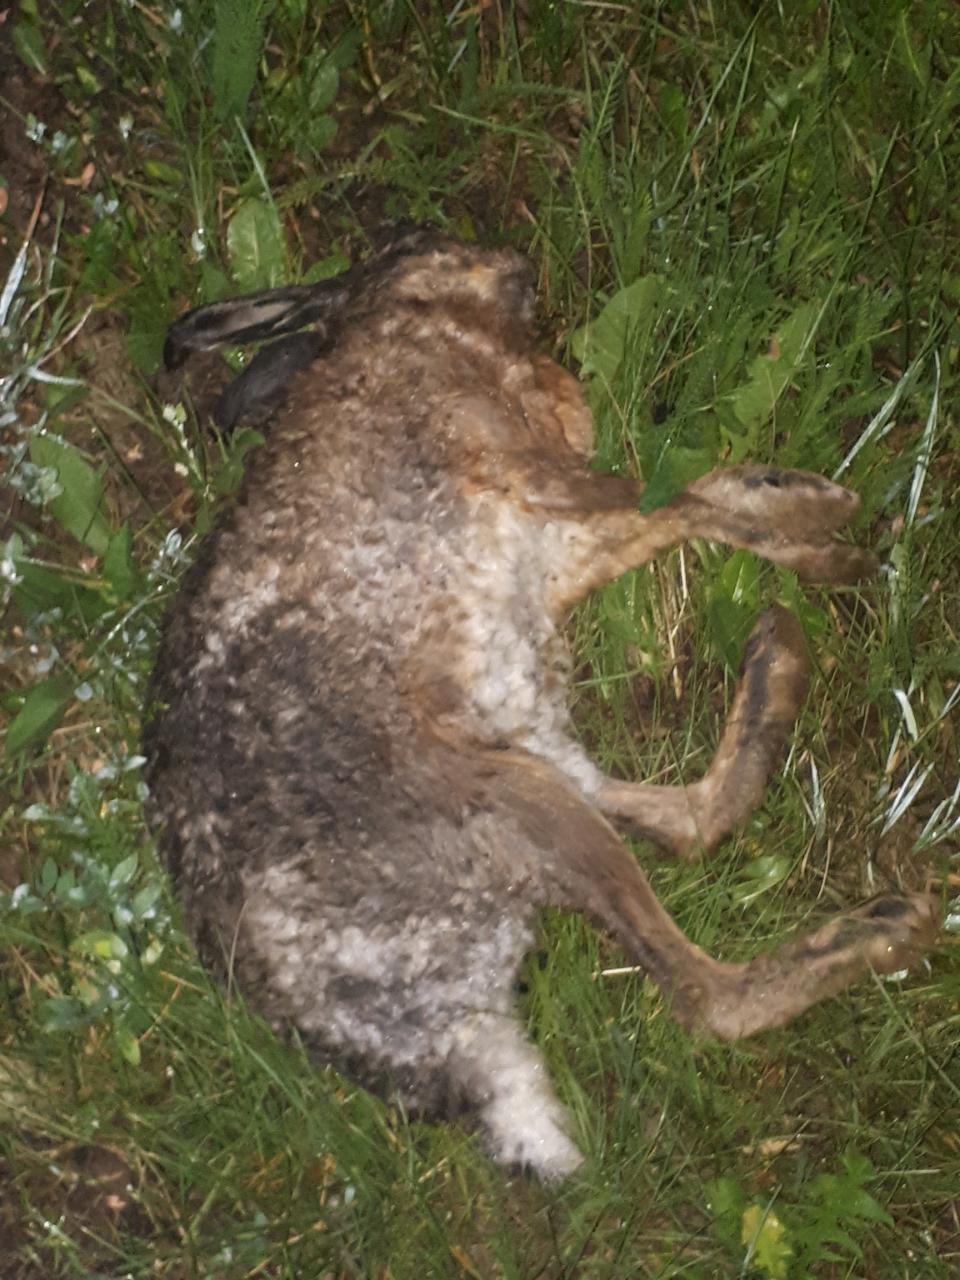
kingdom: Animalia
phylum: Chordata
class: Mammalia
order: Lagomorpha
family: Leporidae
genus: Lepus
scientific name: Lepus europaeus
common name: European hare
